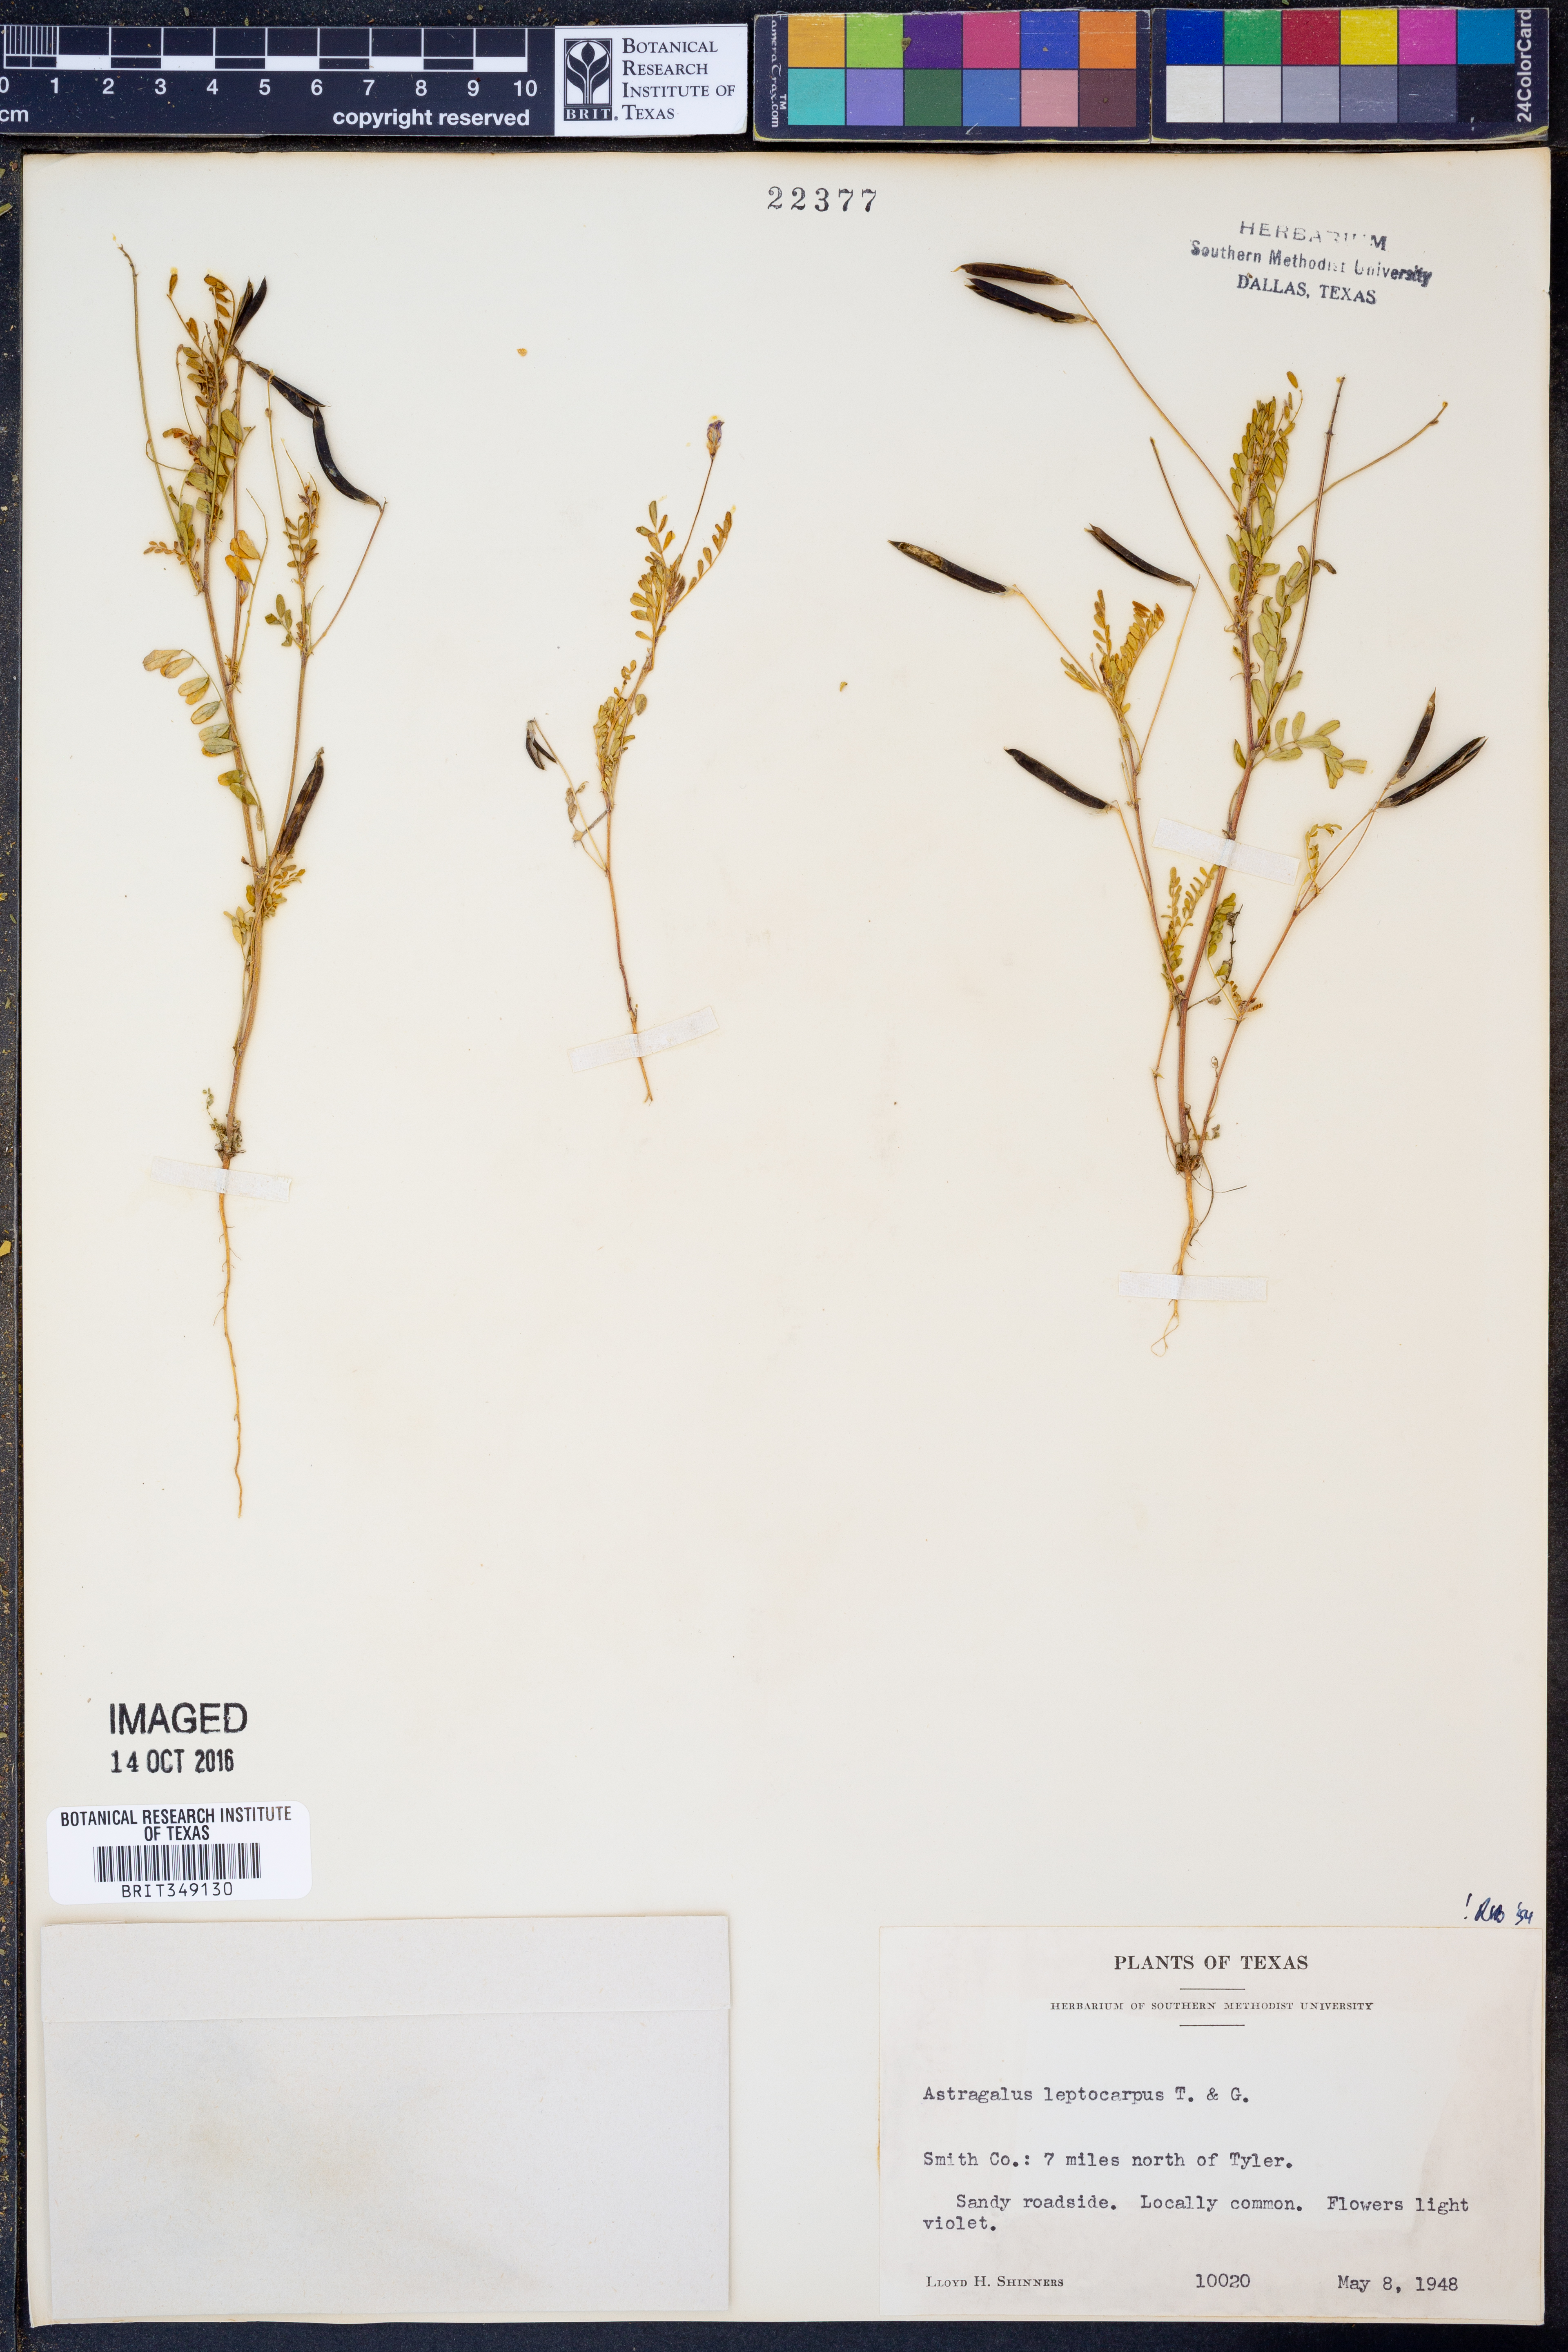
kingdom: Plantae
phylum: Tracheophyta
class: Magnoliopsida
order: Fabales
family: Fabaceae
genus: Astragalus
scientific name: Astragalus leptocarpus
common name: Bodkin milk-vetch
